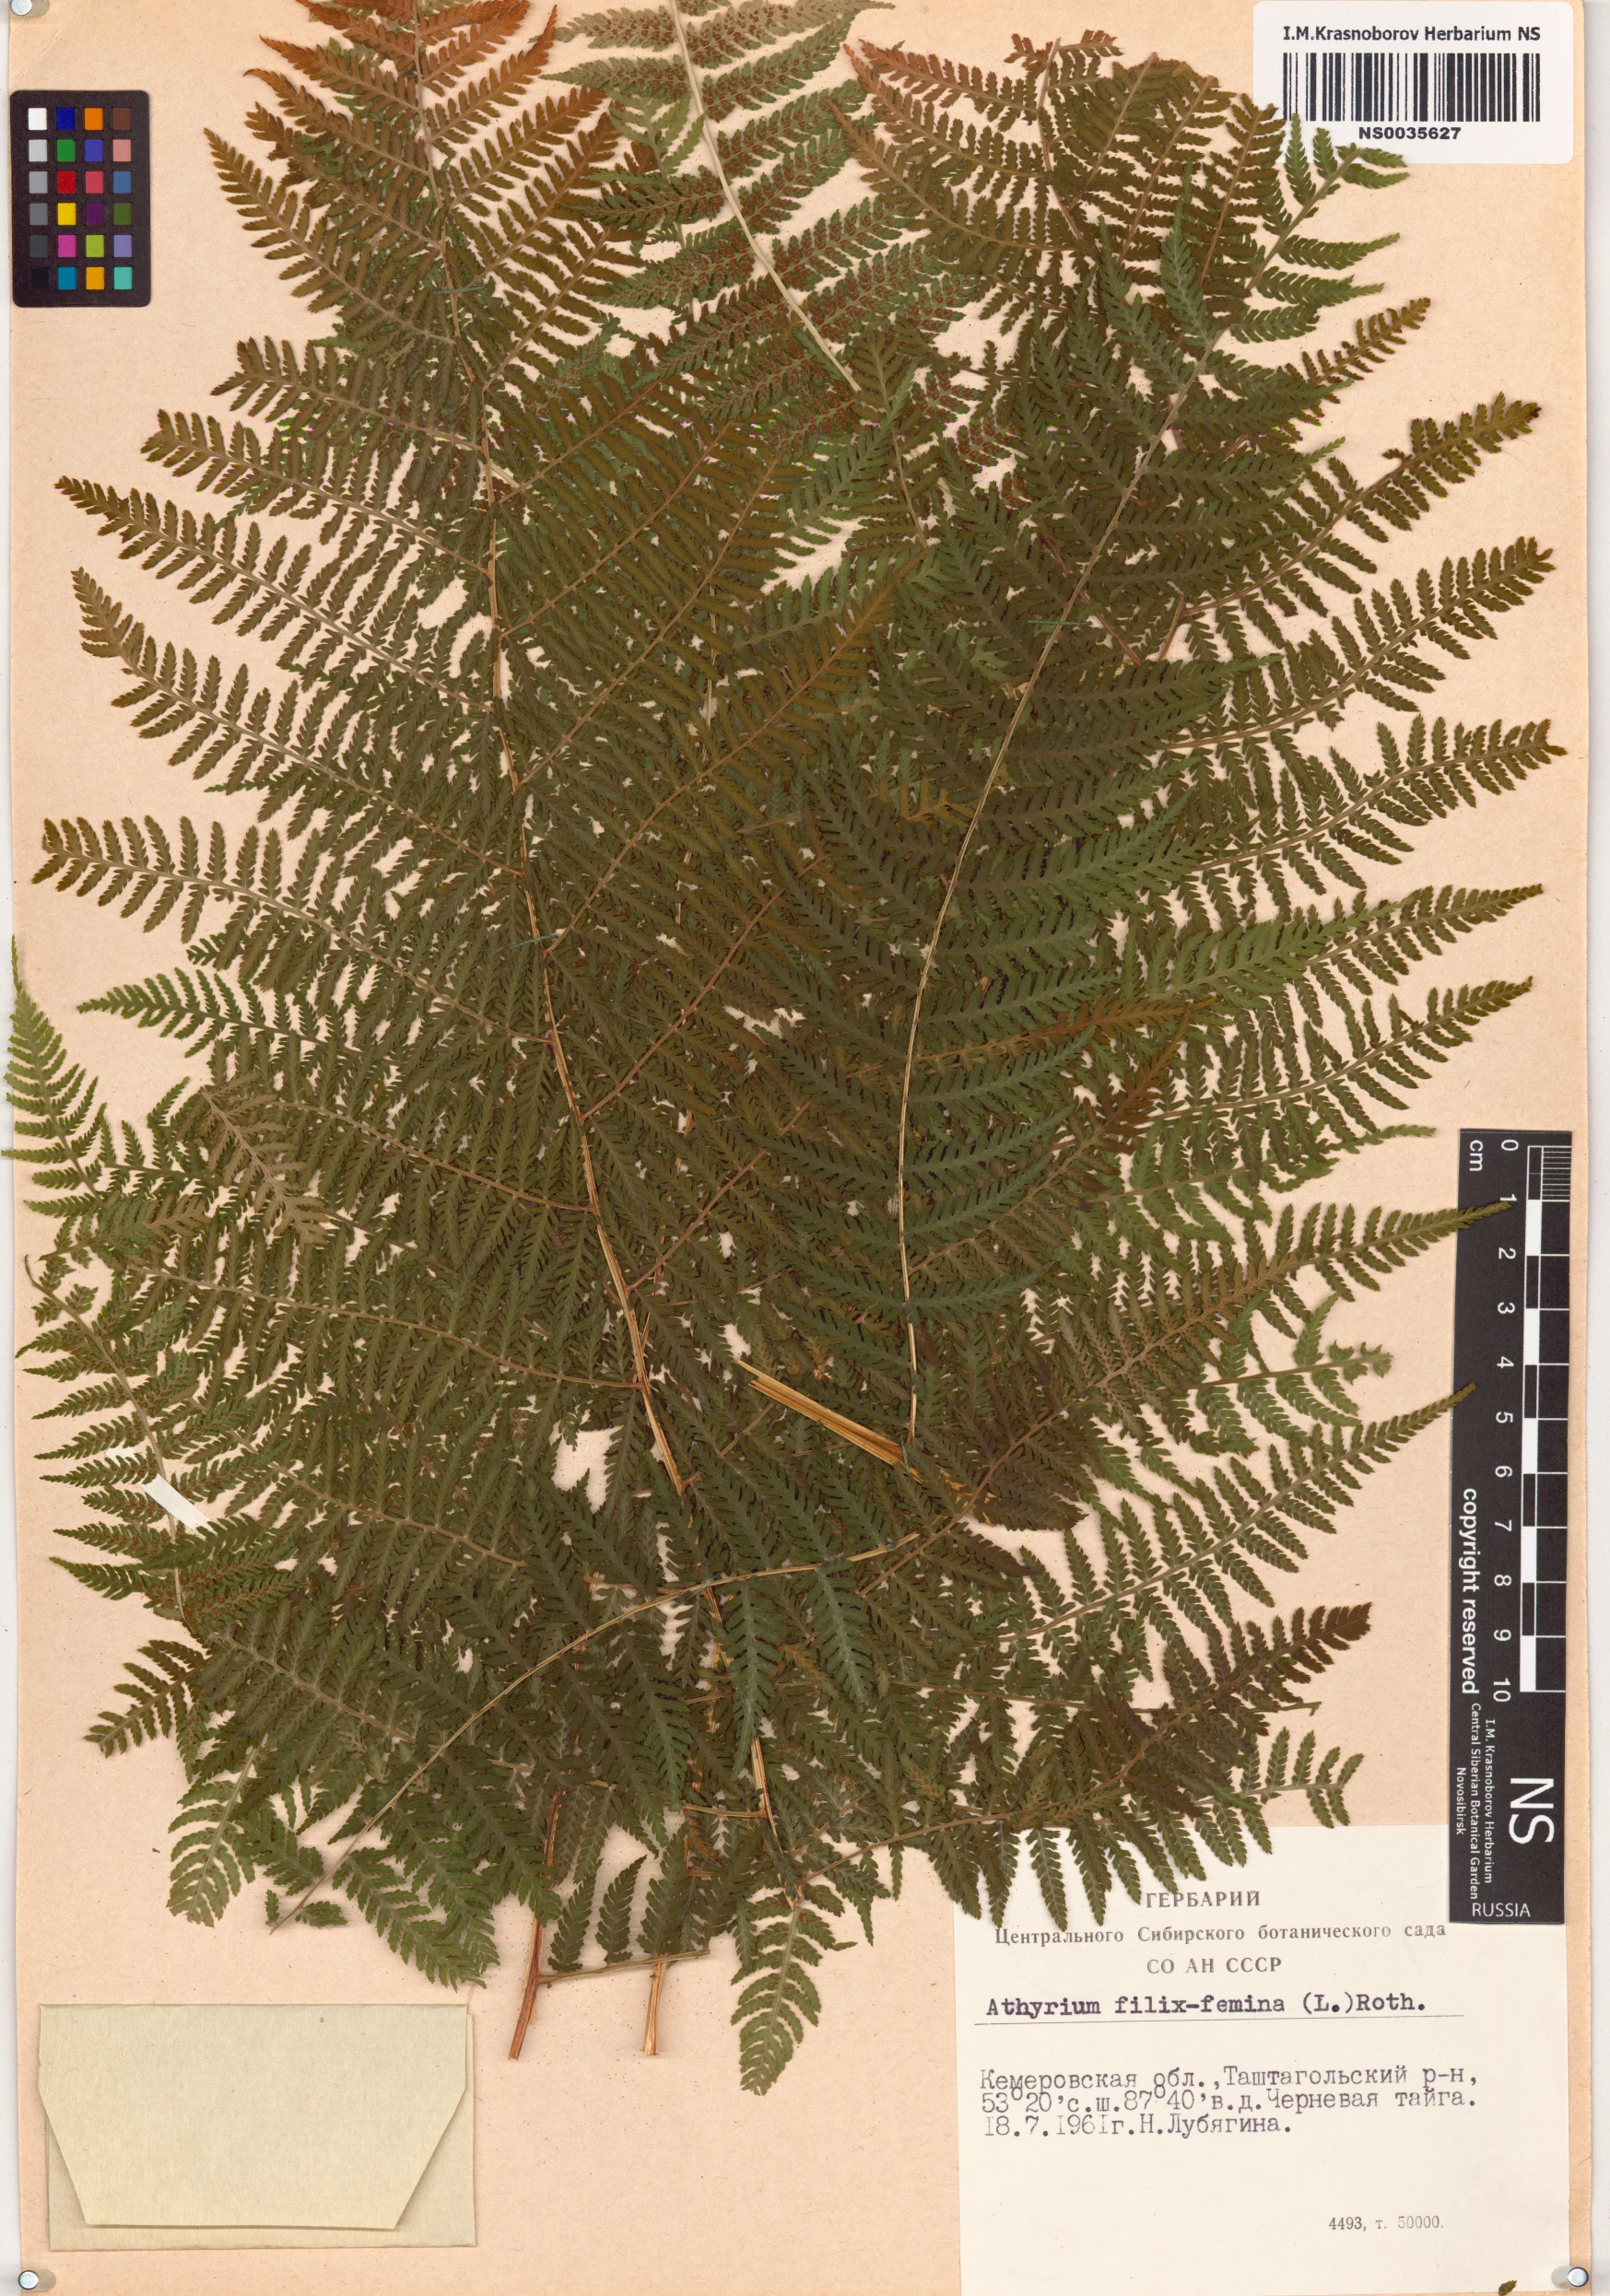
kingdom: Plantae
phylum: Tracheophyta
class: Polypodiopsida
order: Polypodiales
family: Athyriaceae
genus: Athyrium
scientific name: Athyrium filix-femina
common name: Lady fern
